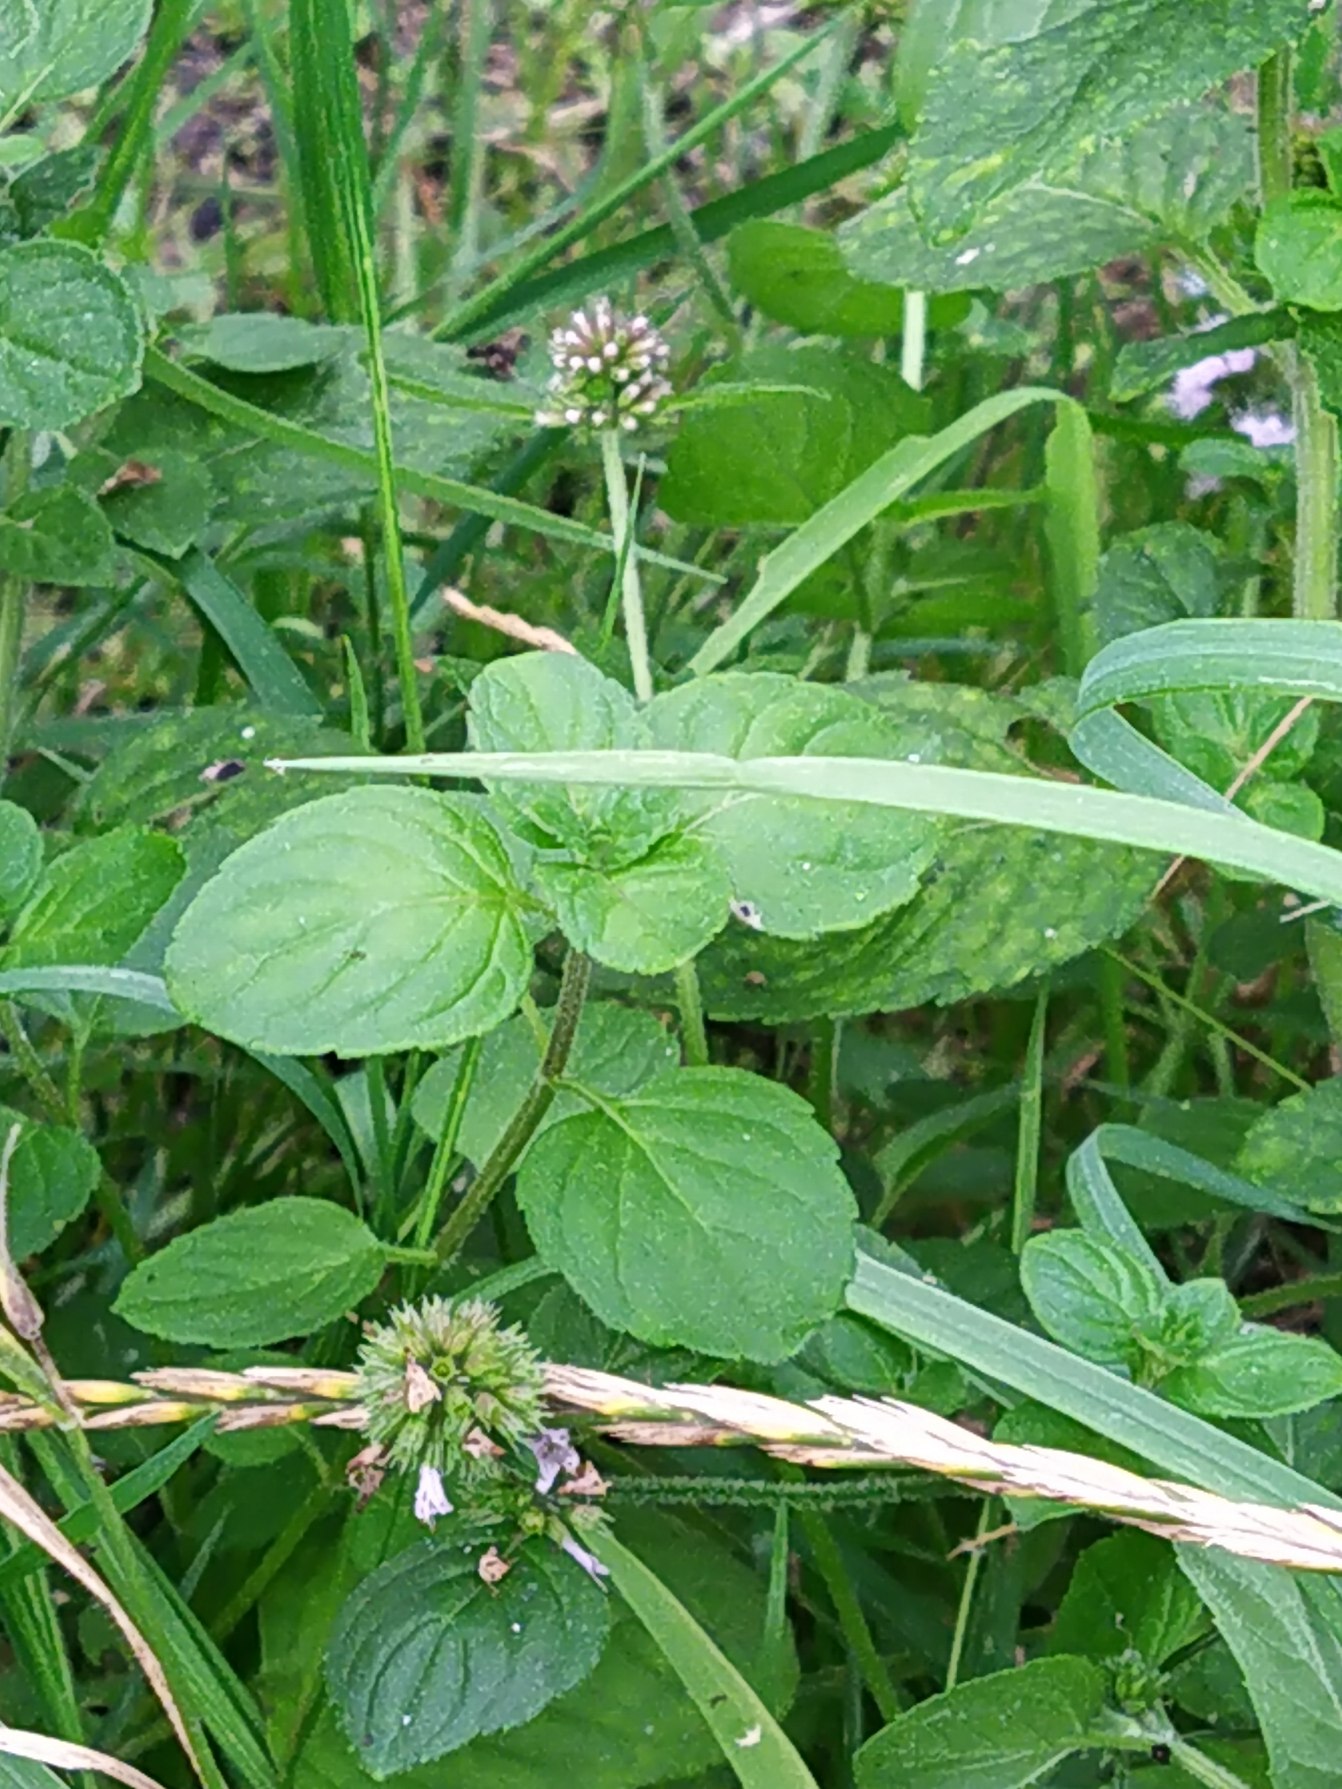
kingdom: Plantae
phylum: Tracheophyta
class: Magnoliopsida
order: Lamiales
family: Lamiaceae
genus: Mentha
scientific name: Mentha aquatica
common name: Vand-mynte
